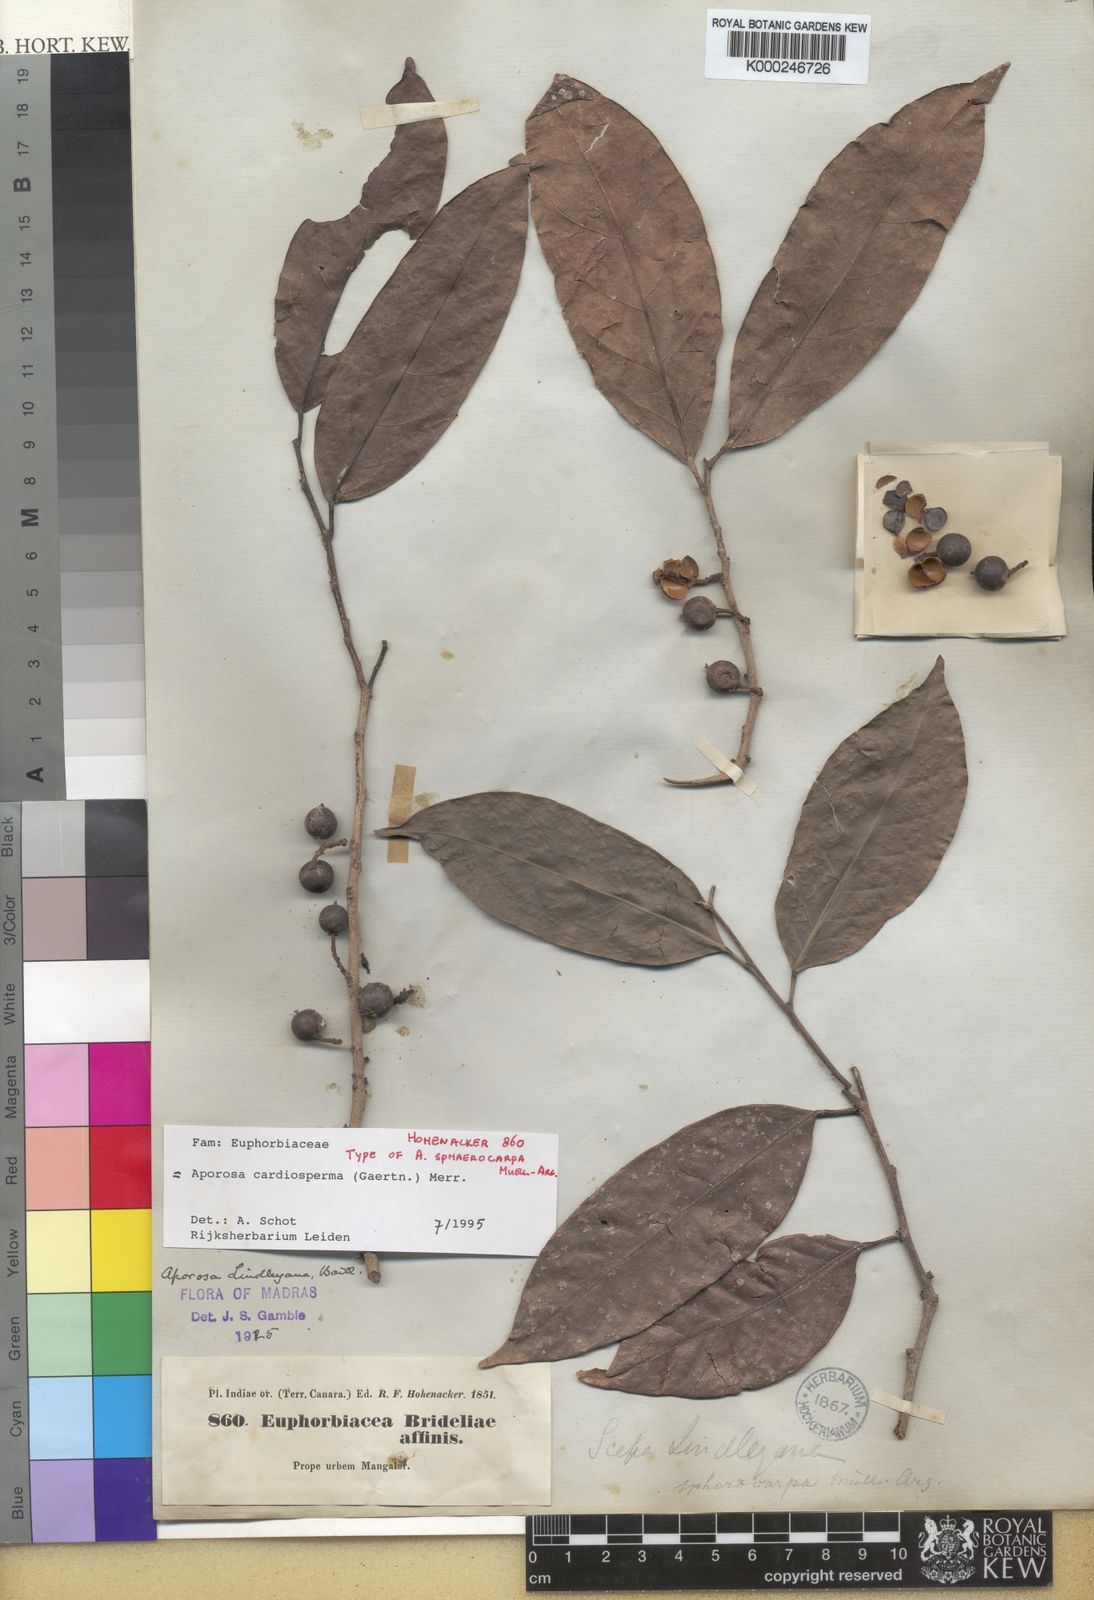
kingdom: Plantae
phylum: Tracheophyta
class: Magnoliopsida
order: Malpighiales
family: Phyllanthaceae
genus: Aporosa
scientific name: Aporosa cardiosperma
